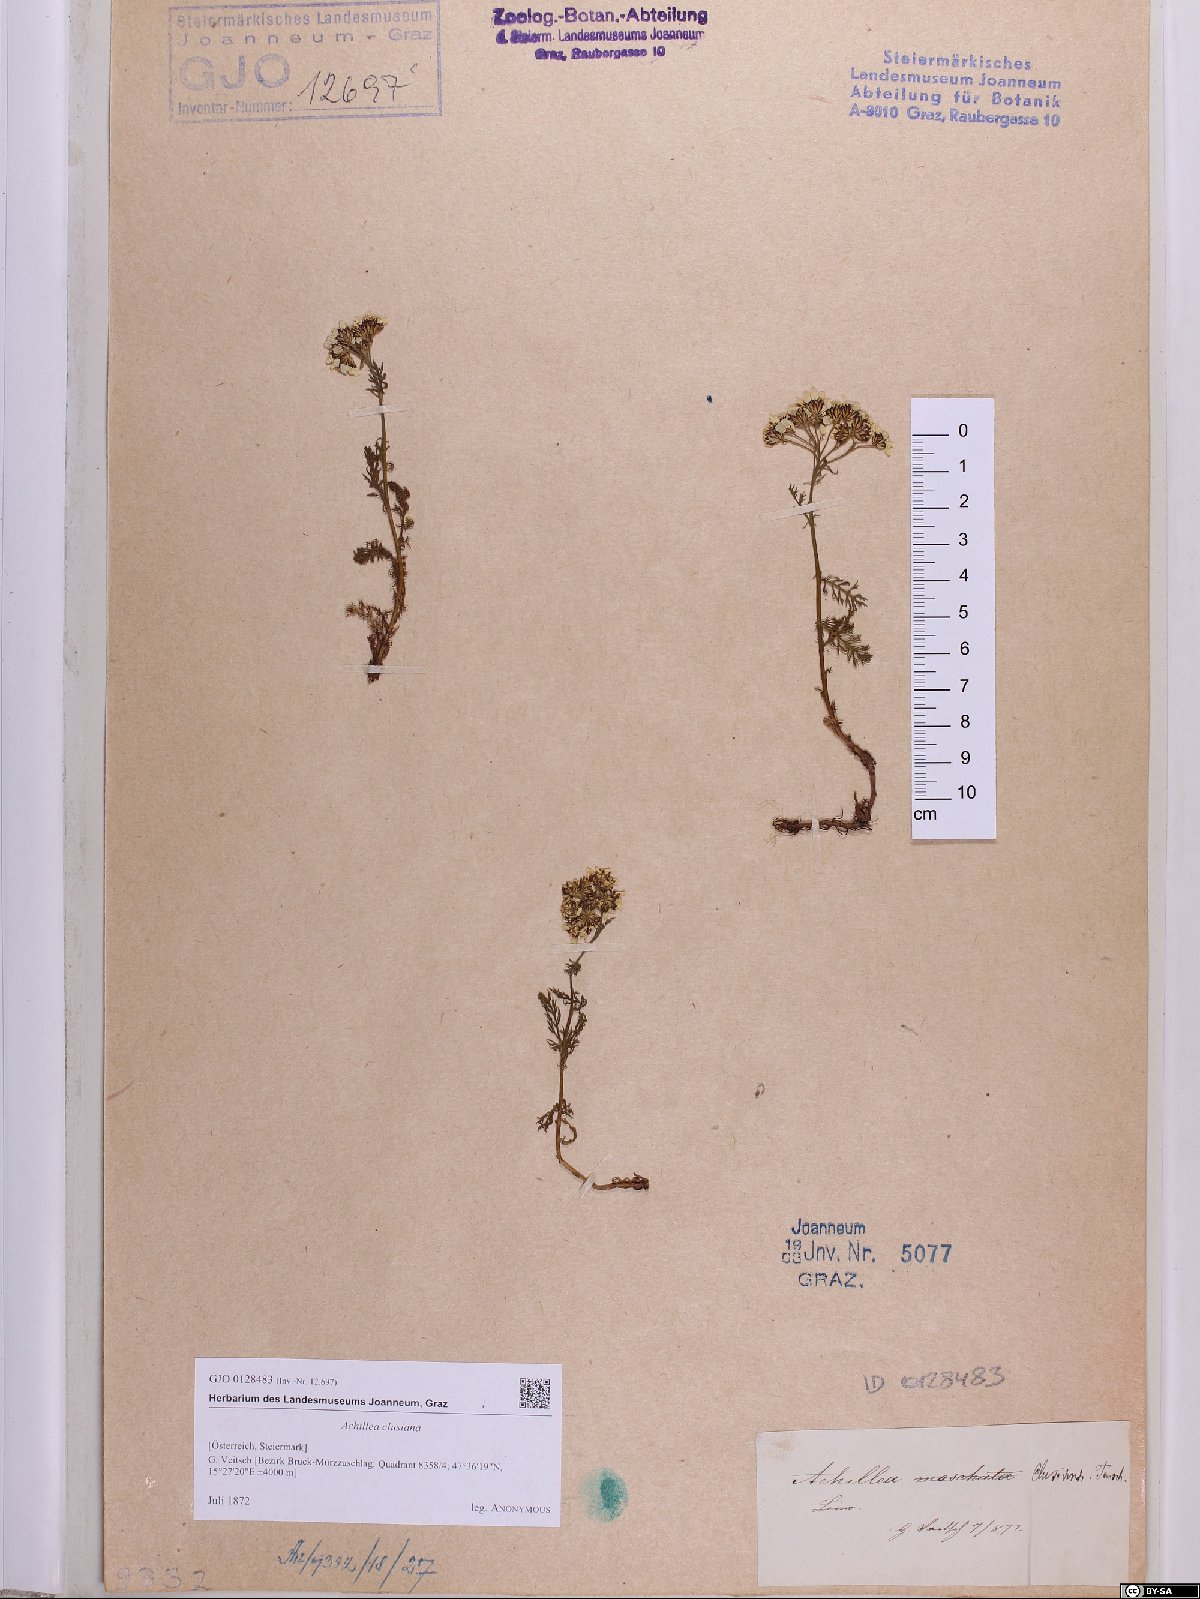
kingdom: Plantae
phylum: Tracheophyta
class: Magnoliopsida
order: Asterales
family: Asteraceae
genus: Achillea
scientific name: Achillea clusiana
